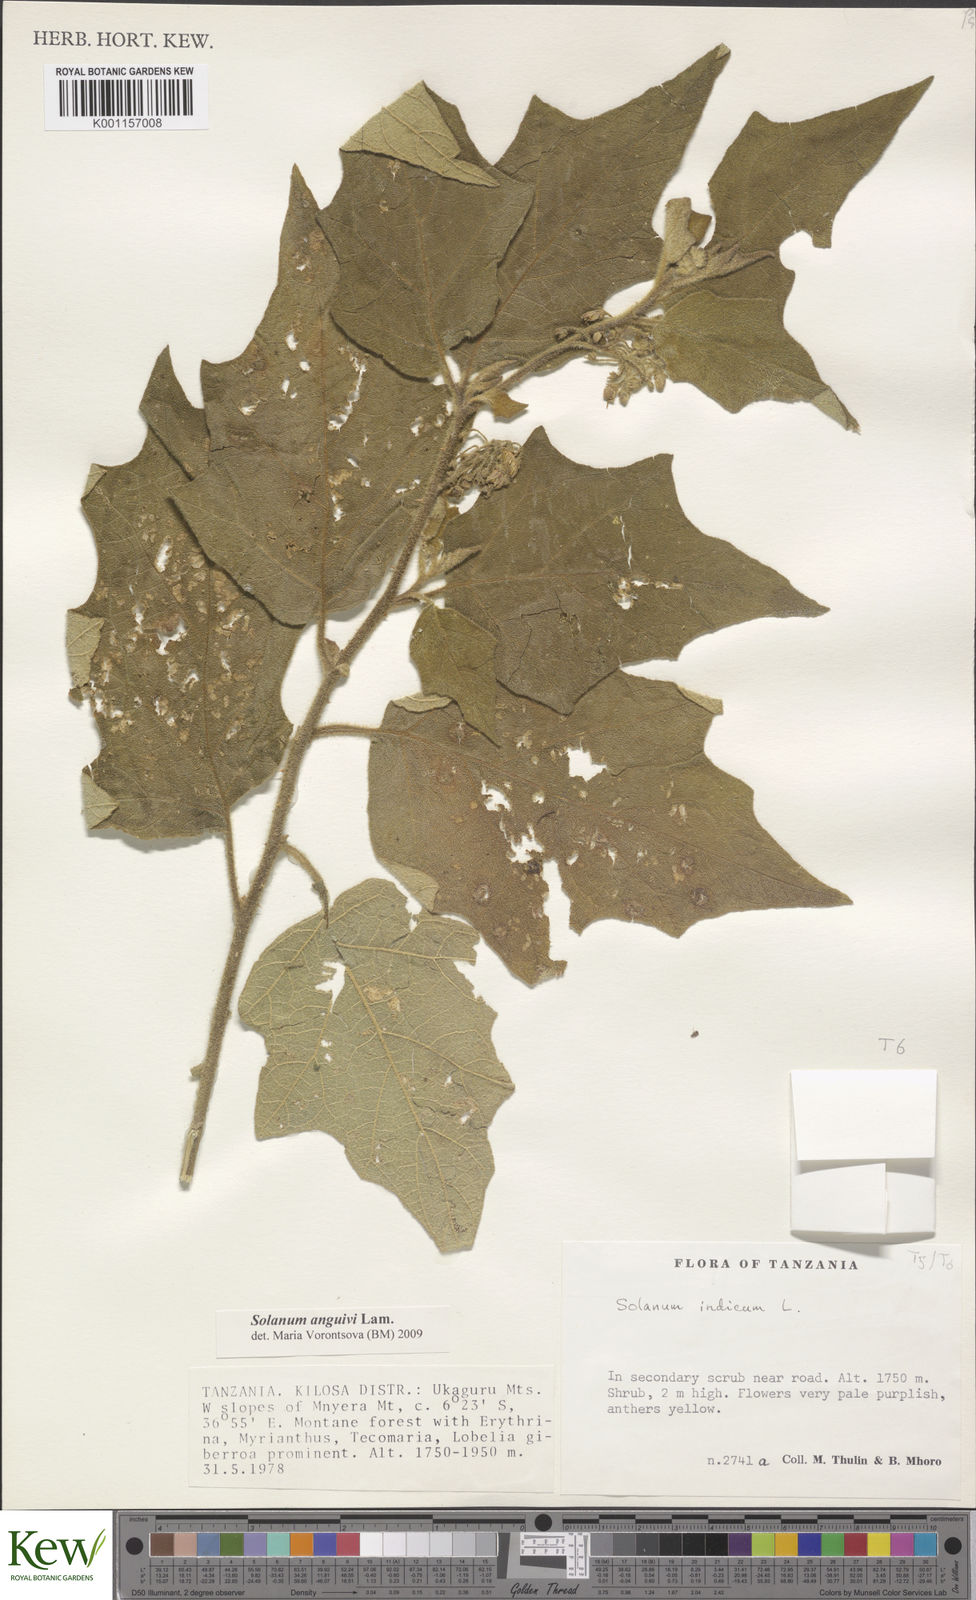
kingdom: Plantae
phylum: Tracheophyta
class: Magnoliopsida
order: Solanales
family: Solanaceae
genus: Solanum
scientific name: Solanum anguivi
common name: Forest bitterberry
